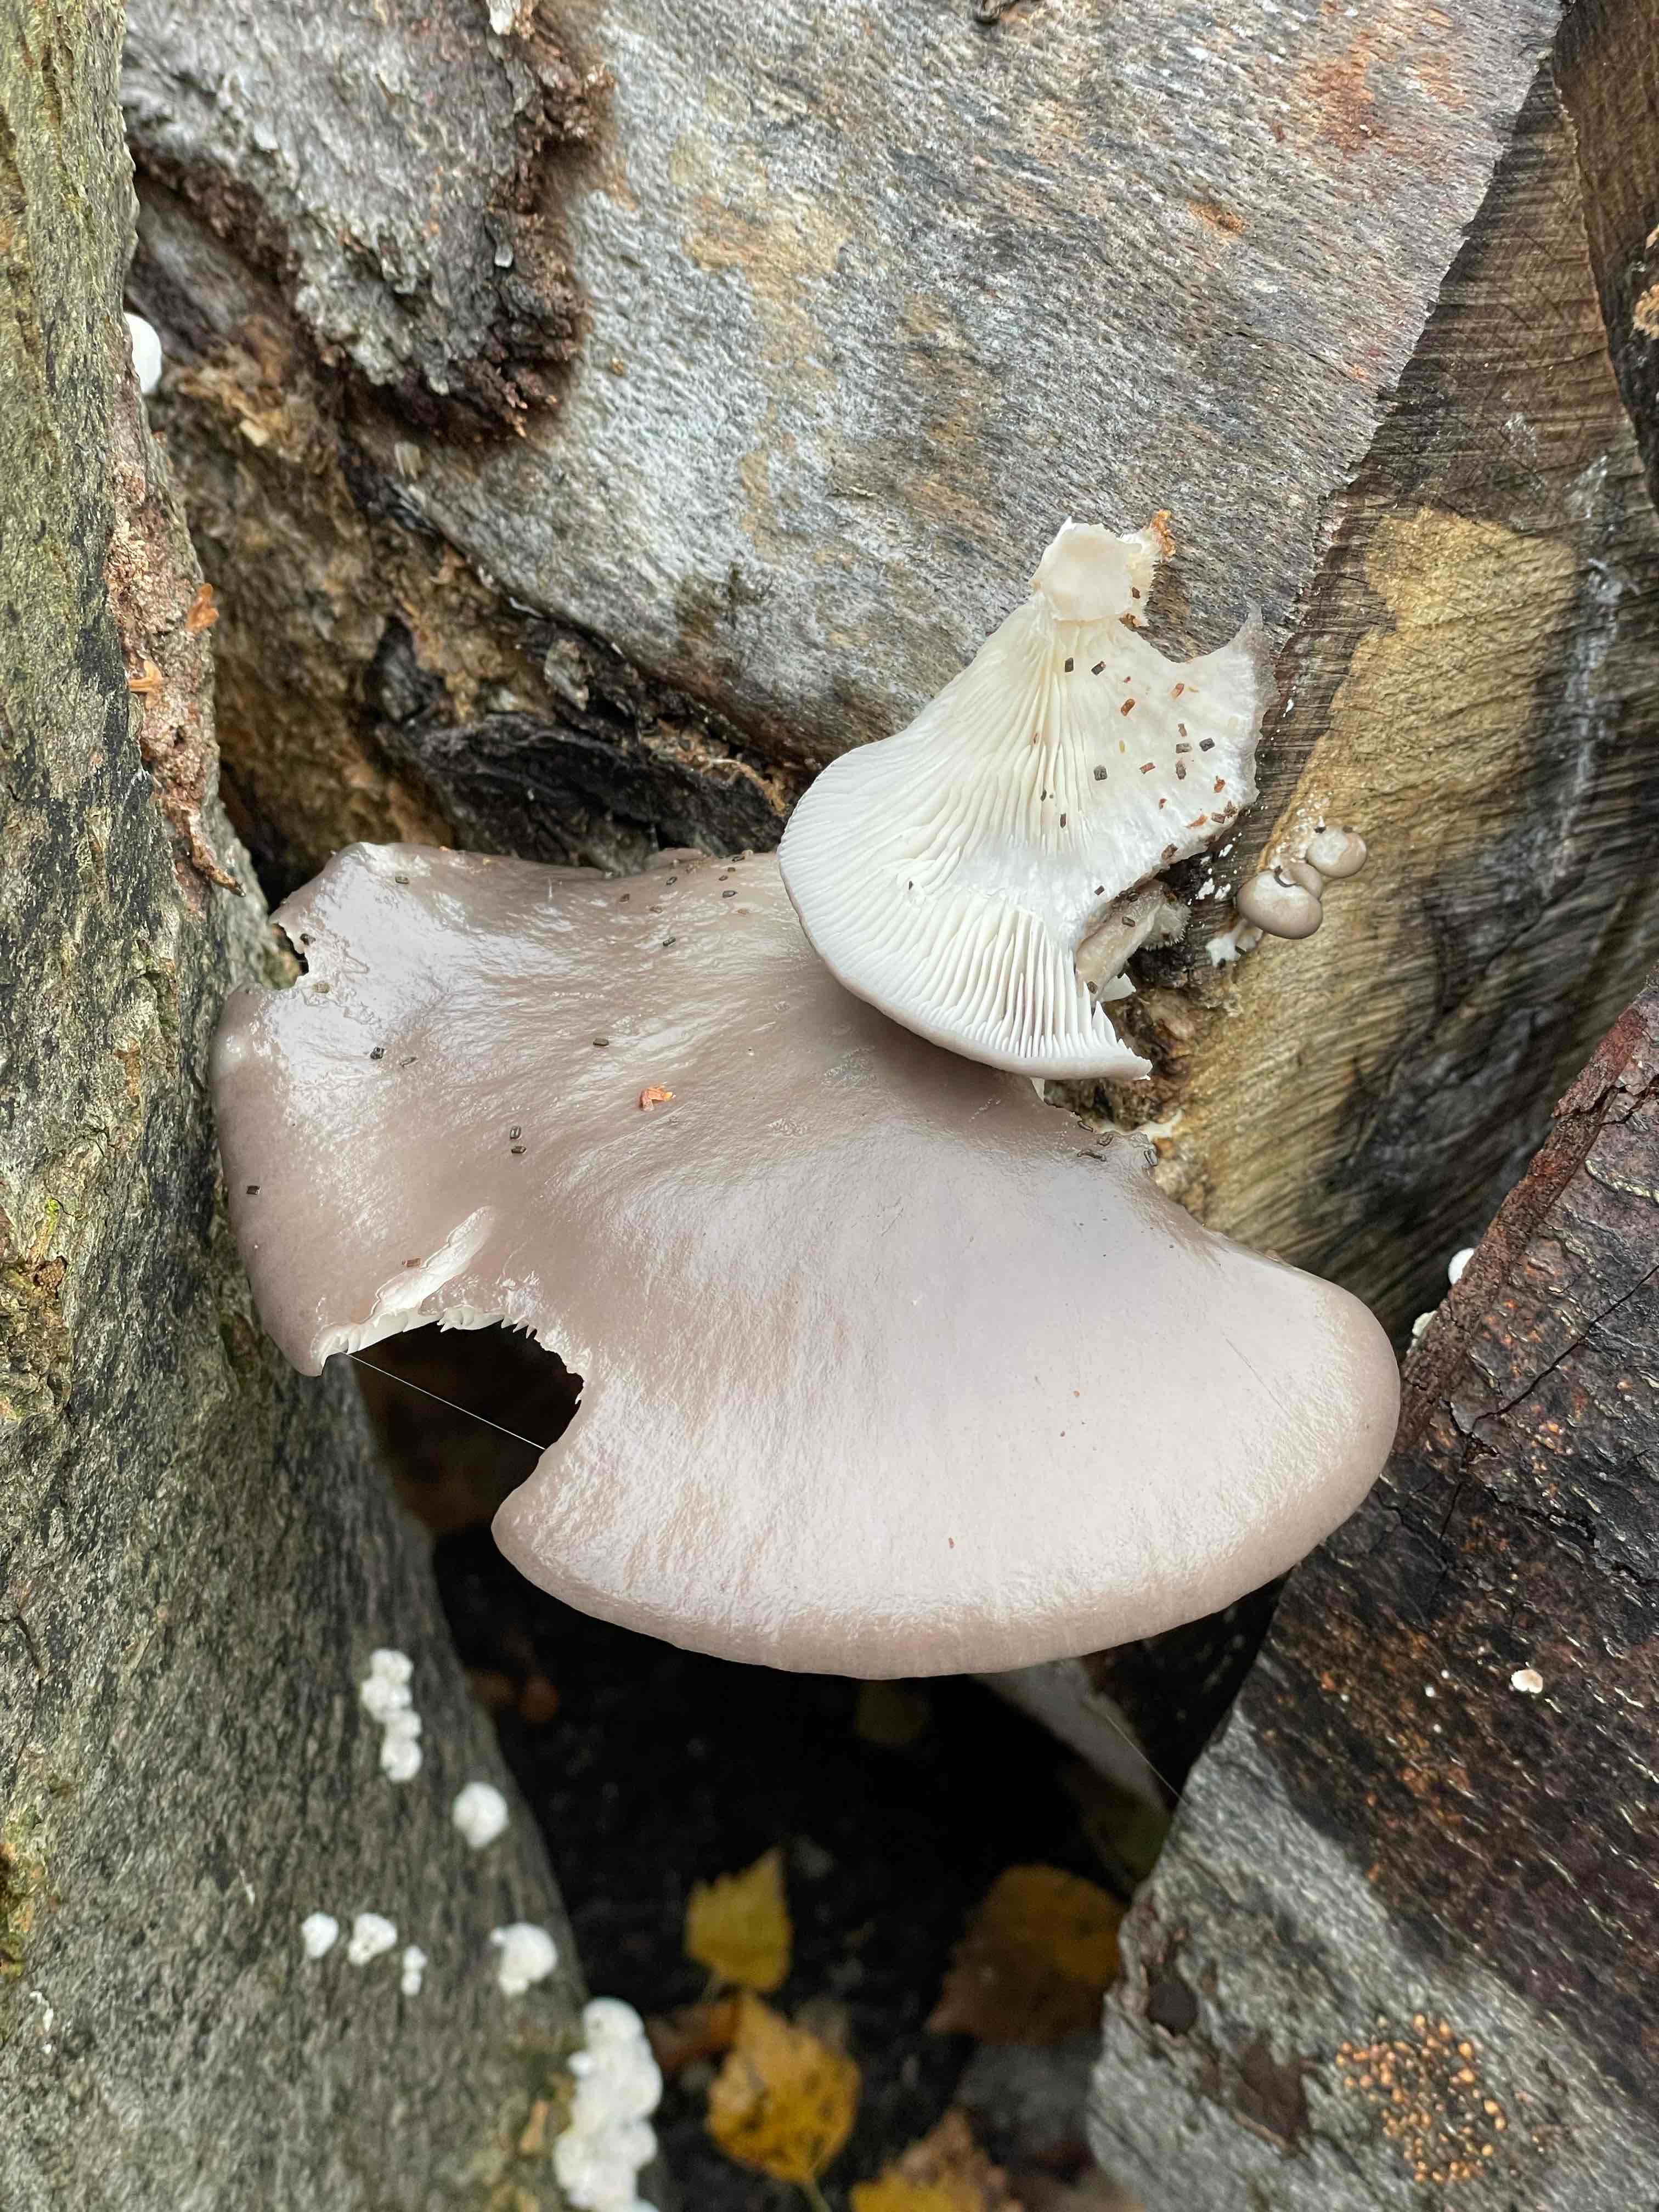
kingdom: Fungi
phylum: Basidiomycota
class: Agaricomycetes
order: Agaricales
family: Pleurotaceae
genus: Pleurotus
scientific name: Pleurotus ostreatus
